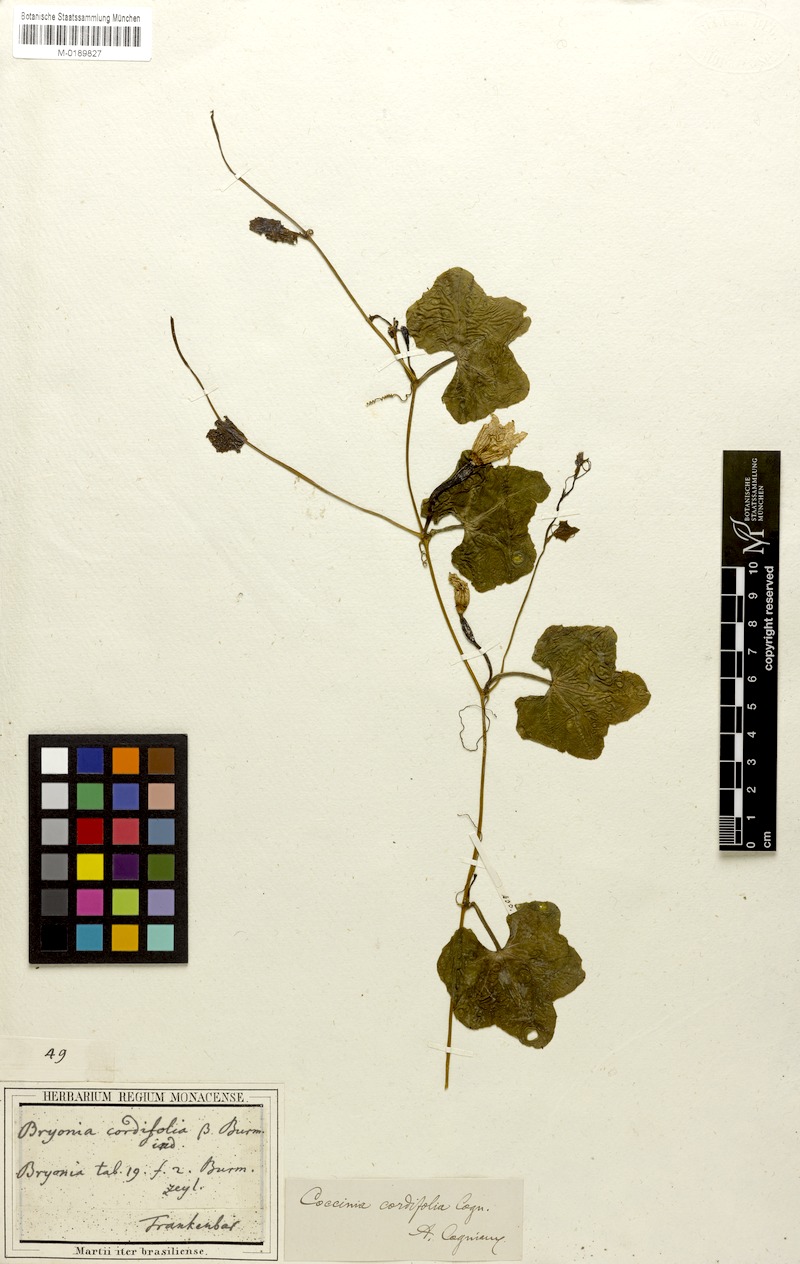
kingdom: Plantae
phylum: Tracheophyta
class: Magnoliopsida
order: Cucurbitales
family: Cucurbitaceae
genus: Coccinia
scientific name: Coccinia grandis
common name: Ivy gourd
